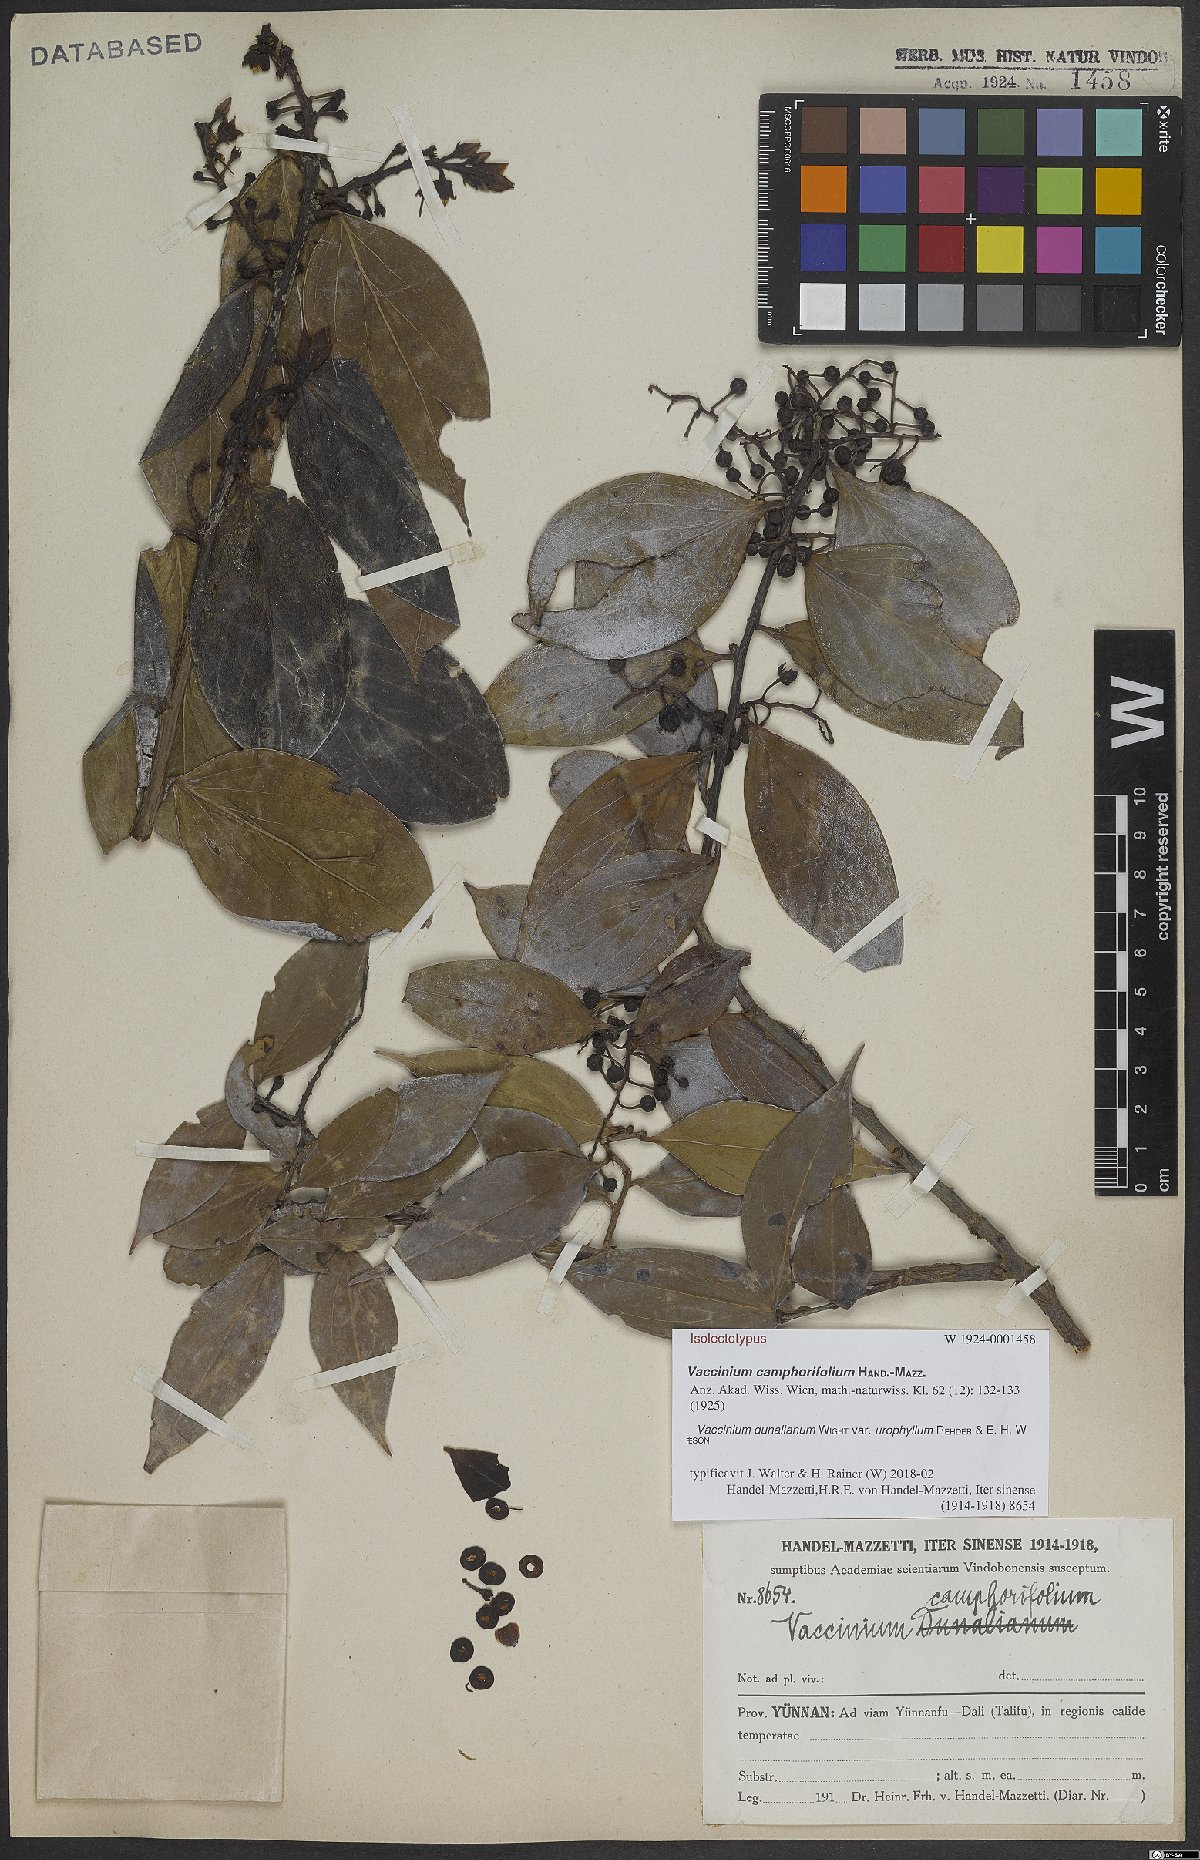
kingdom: Plantae
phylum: Tracheophyta
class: Magnoliopsida
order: Ericales
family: Ericaceae
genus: Vaccinium
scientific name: Vaccinium dunalianum
